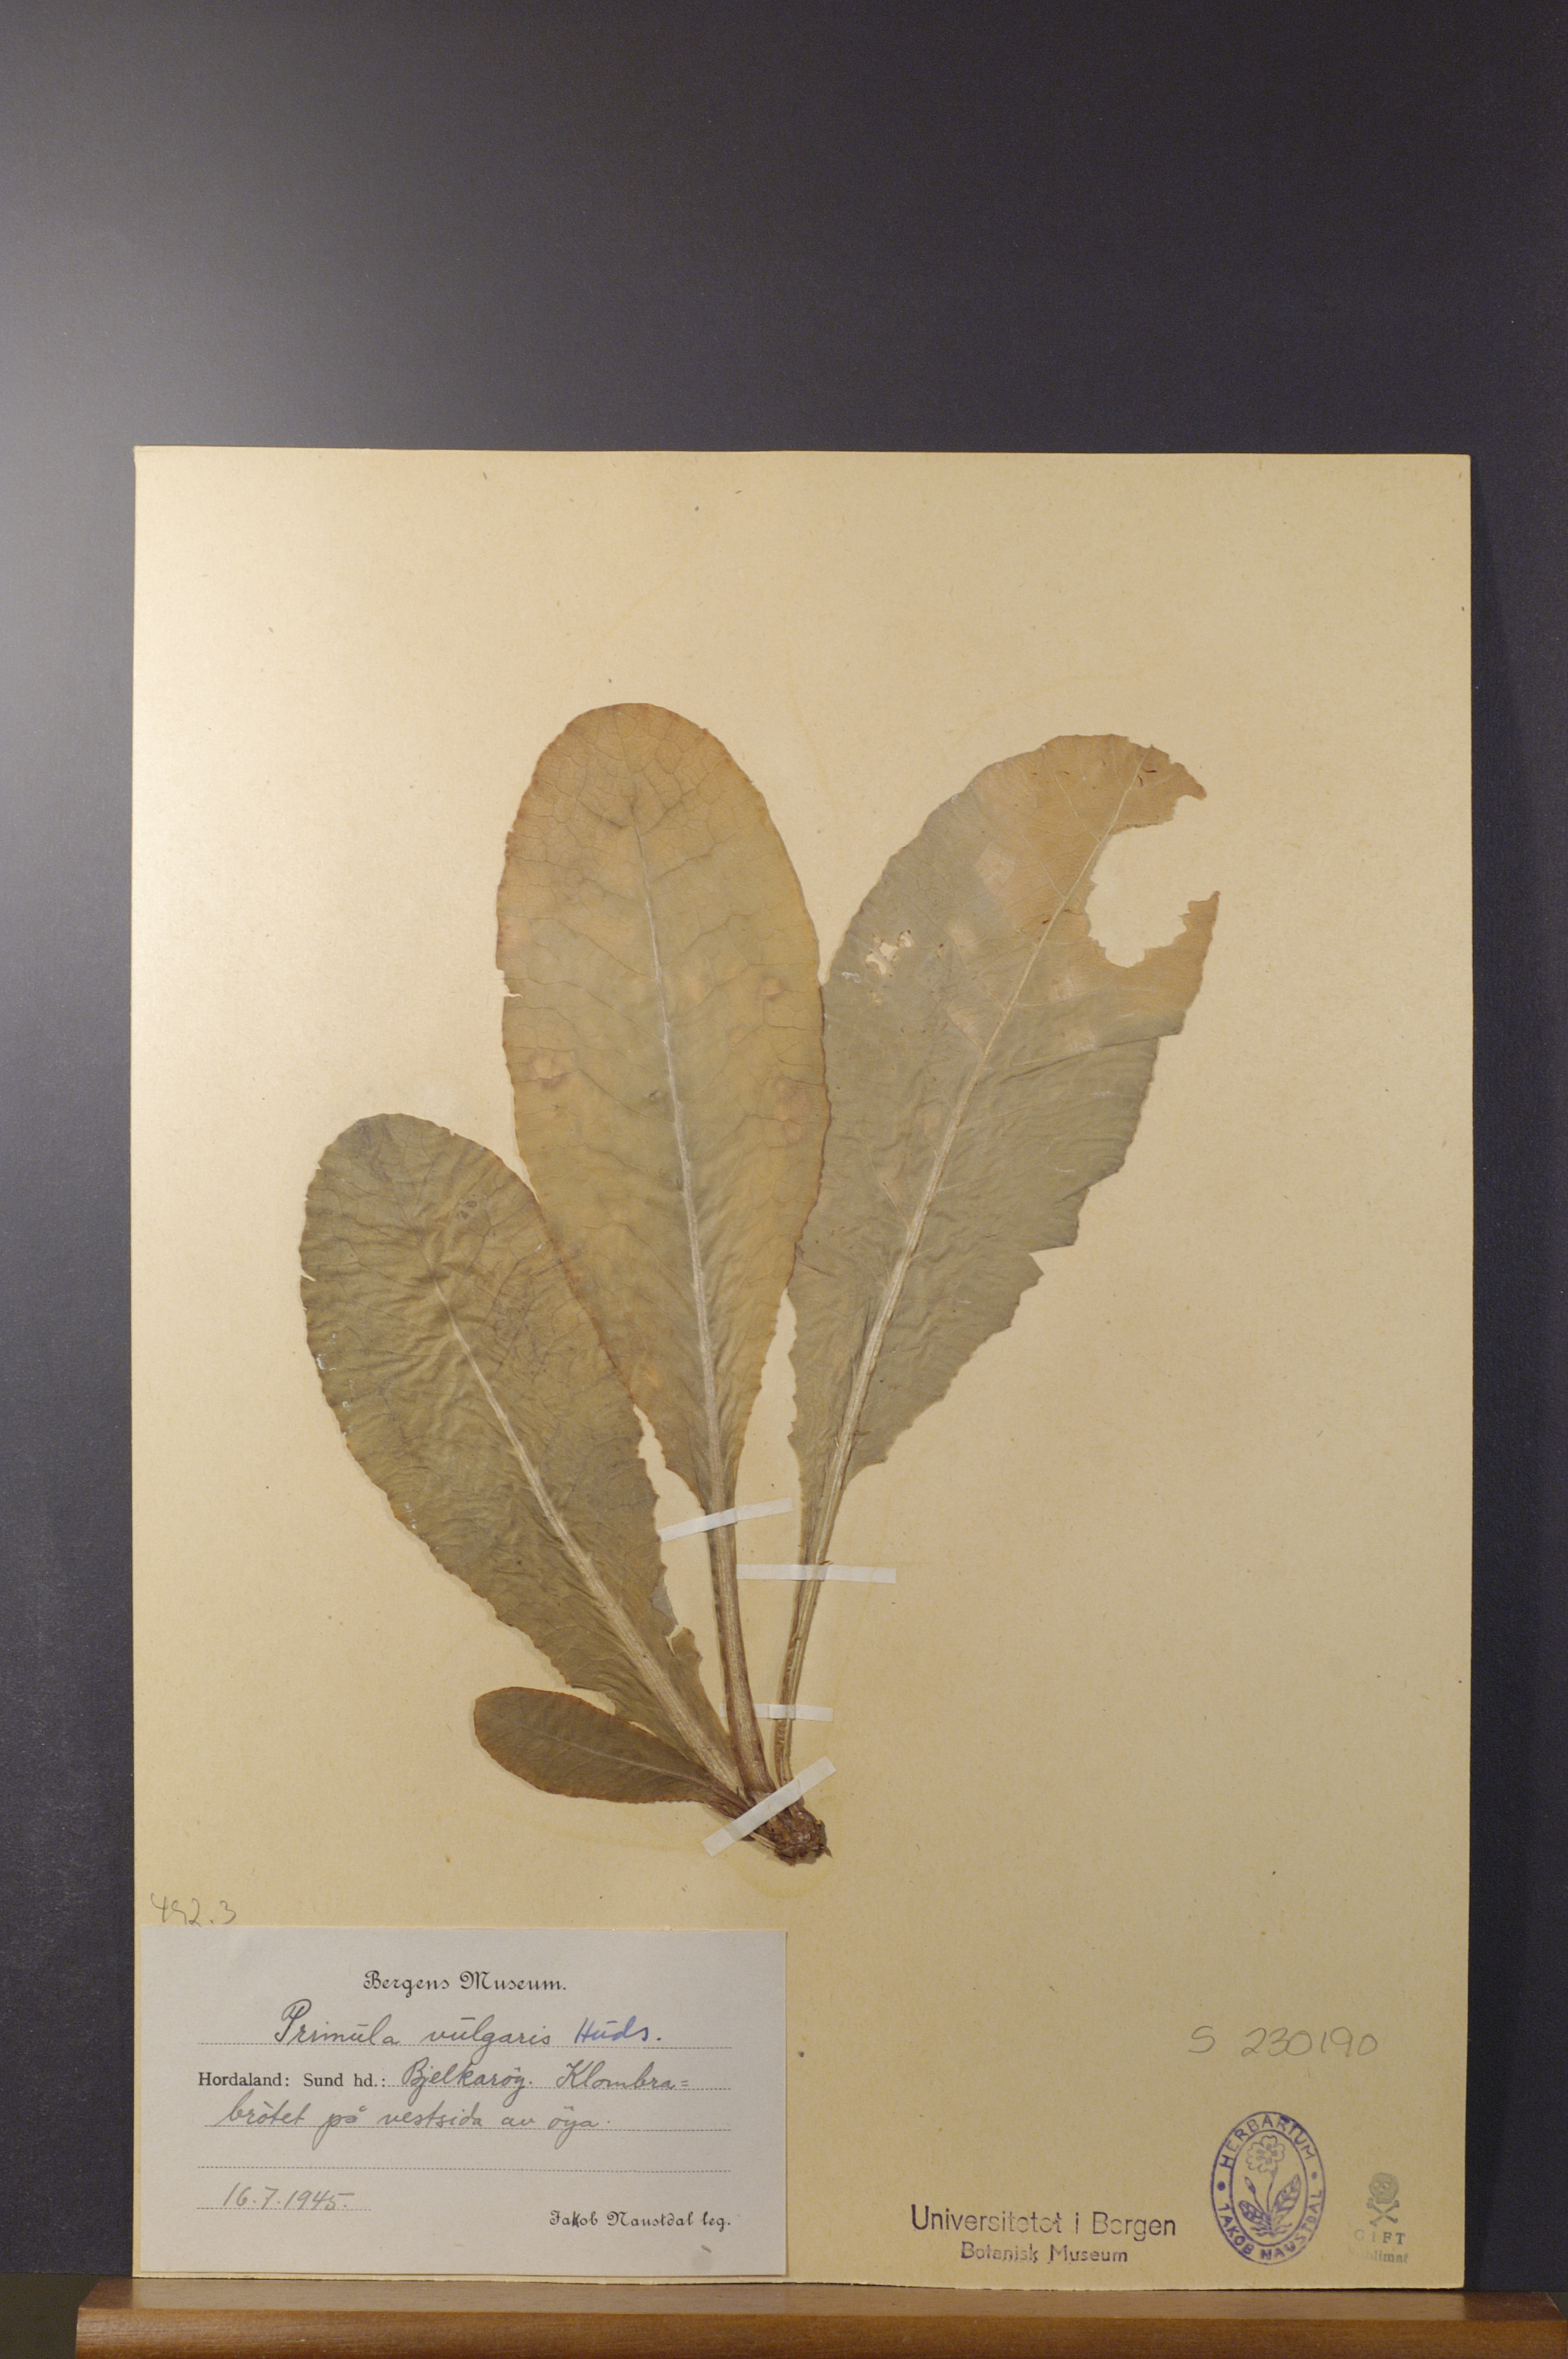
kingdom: Plantae
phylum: Tracheophyta
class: Magnoliopsida
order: Ericales
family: Primulaceae
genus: Primula
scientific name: Primula vulgaris
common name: Primrose
